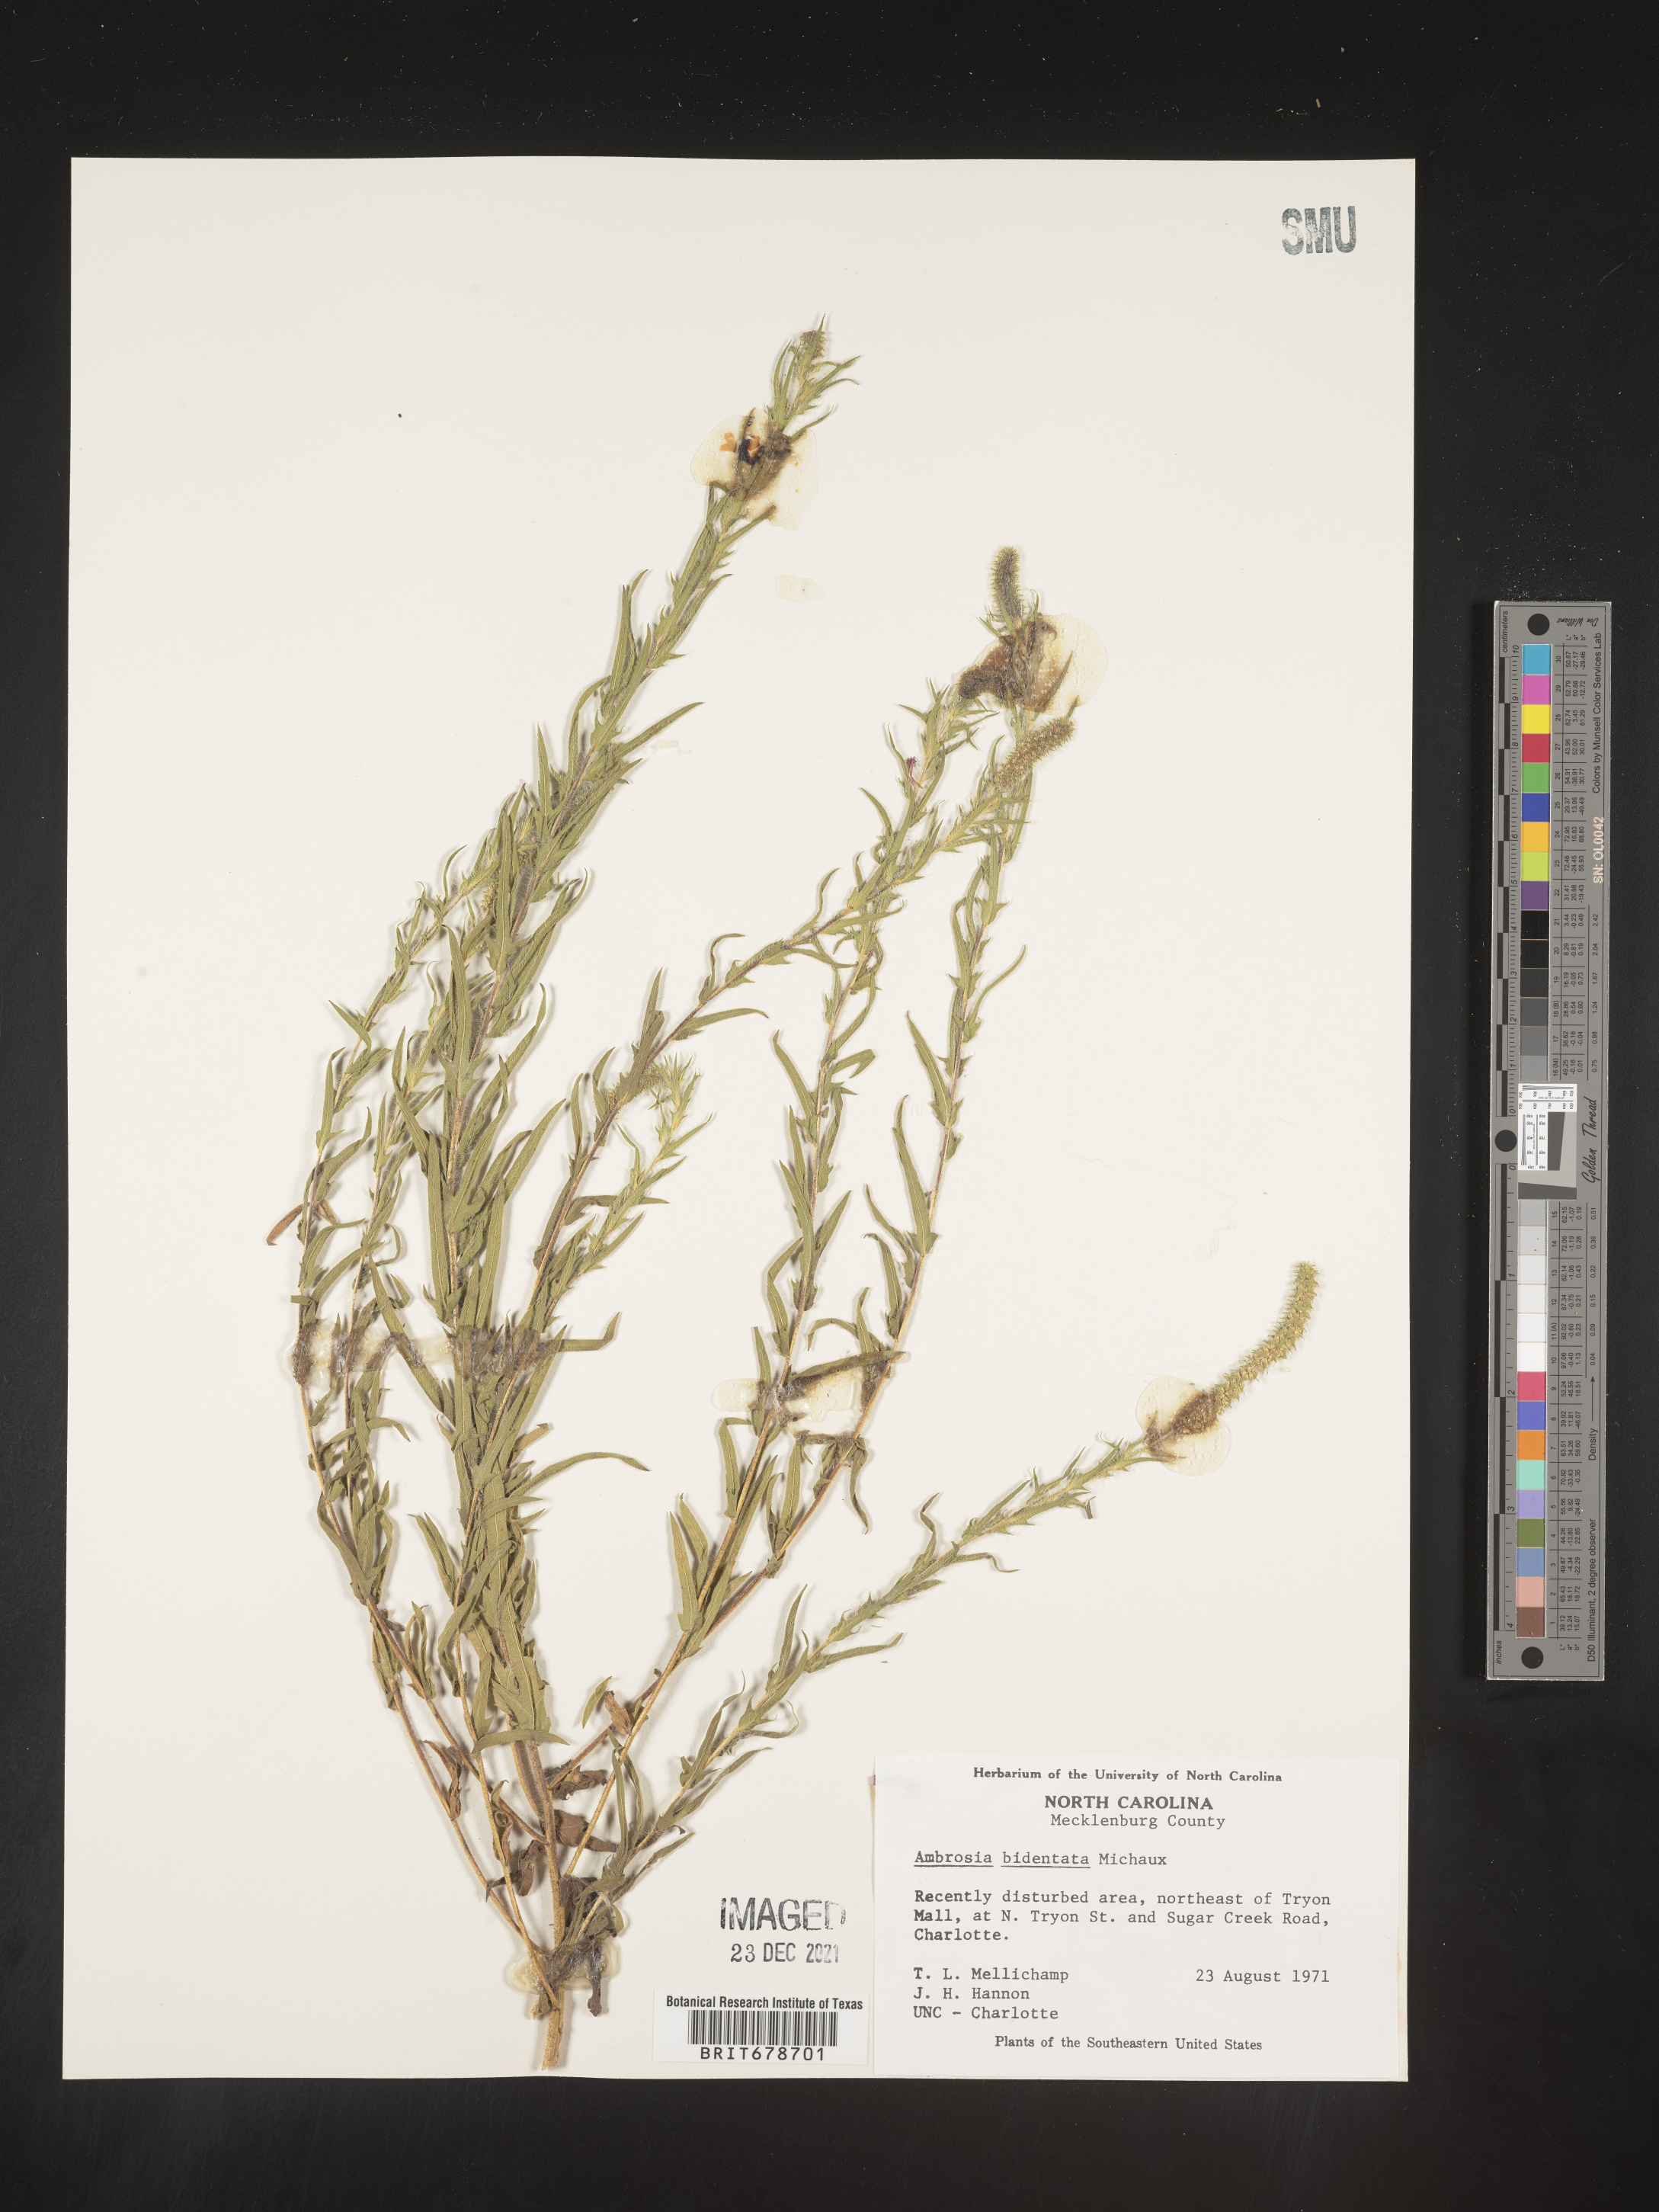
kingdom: Plantae
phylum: Tracheophyta
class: Magnoliopsida
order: Asterales
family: Asteraceae
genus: Ambrosia
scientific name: Ambrosia bidentata
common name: Southern ragweed
